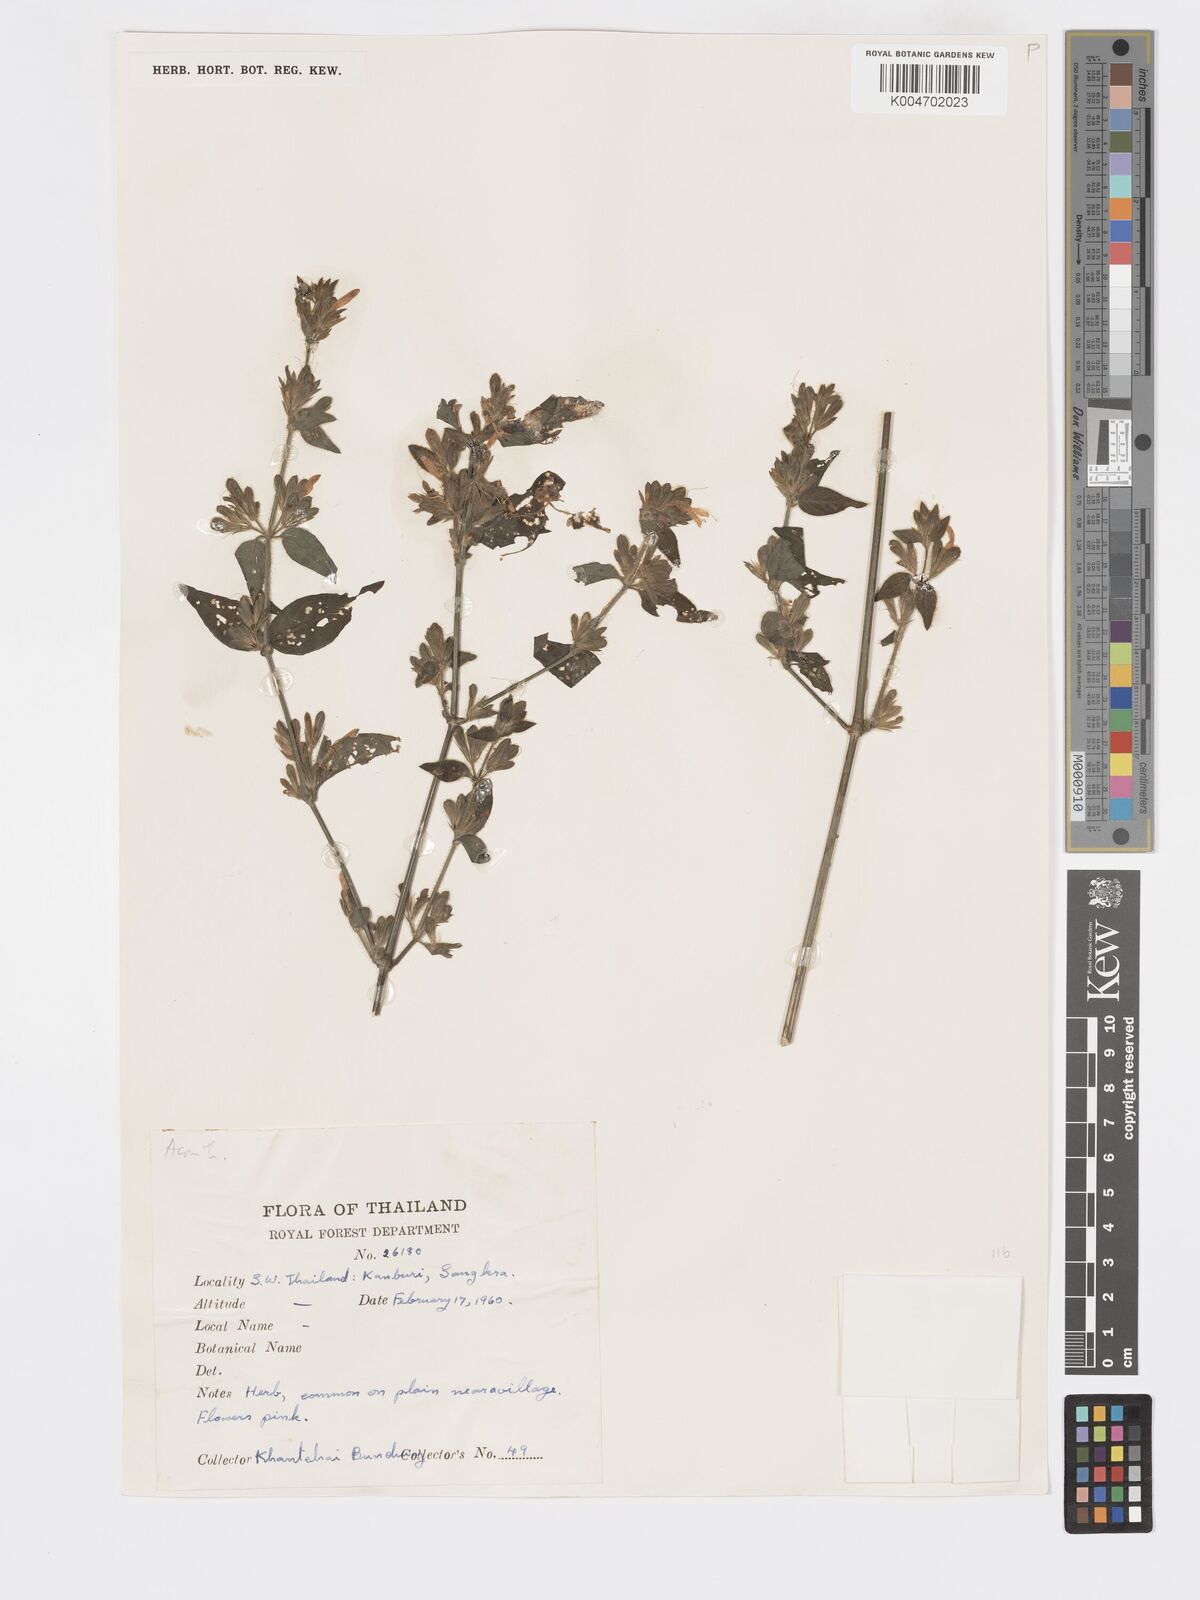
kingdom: Plantae
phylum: Tracheophyta
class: Magnoliopsida
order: Lamiales
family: Acanthaceae
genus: Dicliptera
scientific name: Dicliptera
